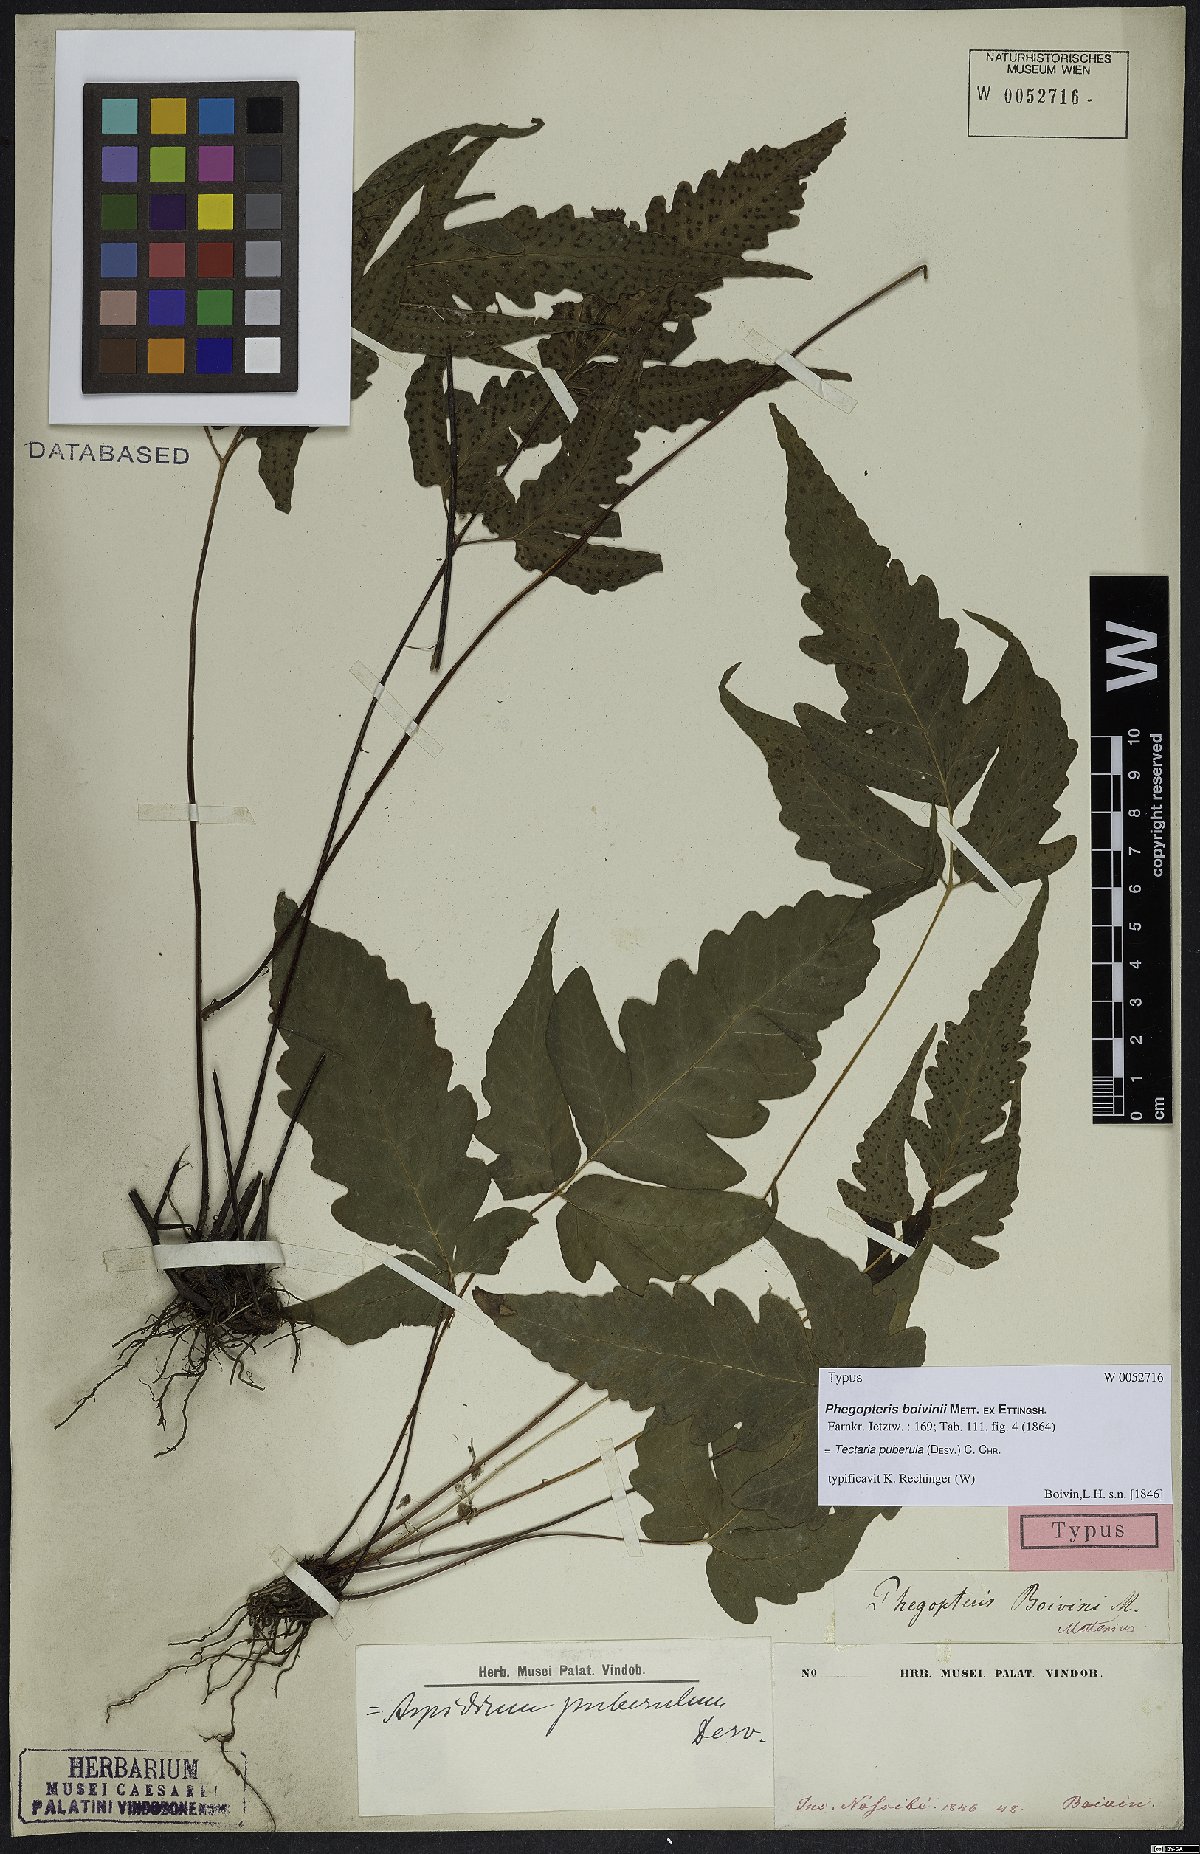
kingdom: Plantae
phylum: Tracheophyta
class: Polypodiopsida
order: Polypodiales
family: Tectariaceae
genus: Tectaria
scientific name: Tectaria puberula
